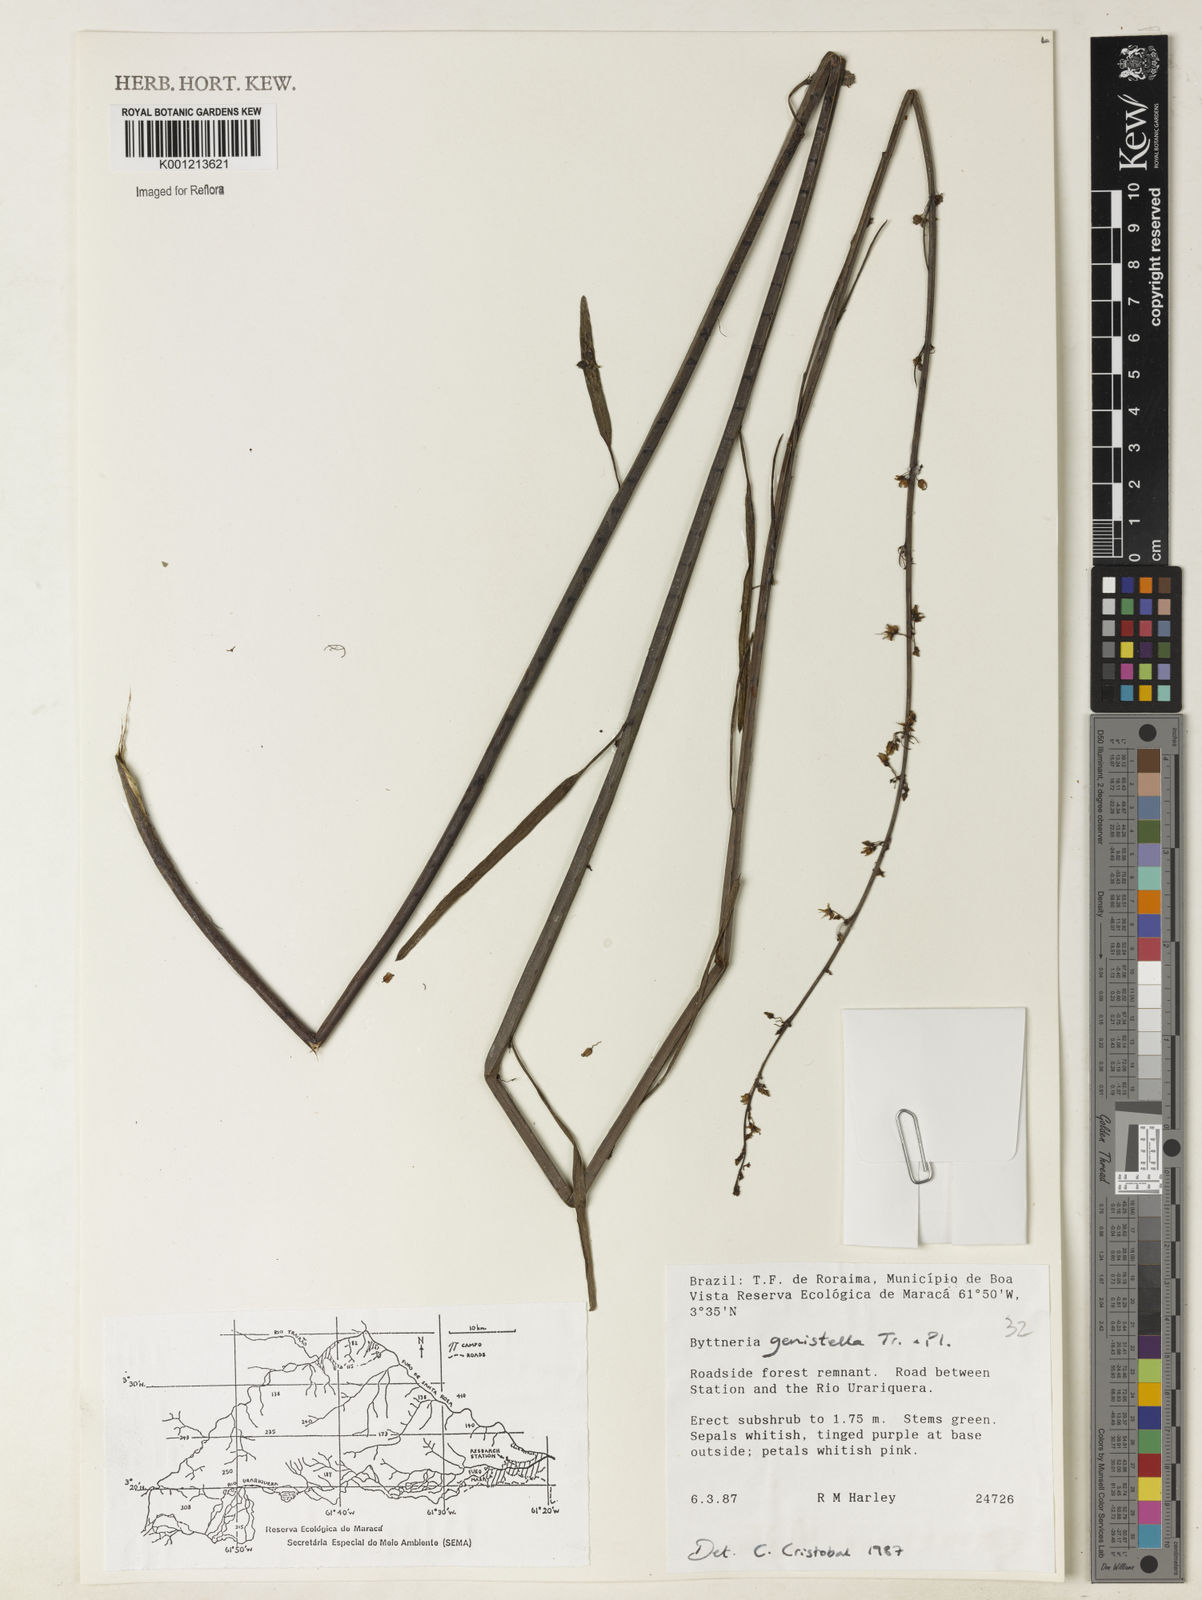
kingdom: Plantae
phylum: Tracheophyta
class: Magnoliopsida
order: Malvales
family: Malvaceae
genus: Byttneria
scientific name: Byttneria genistella
